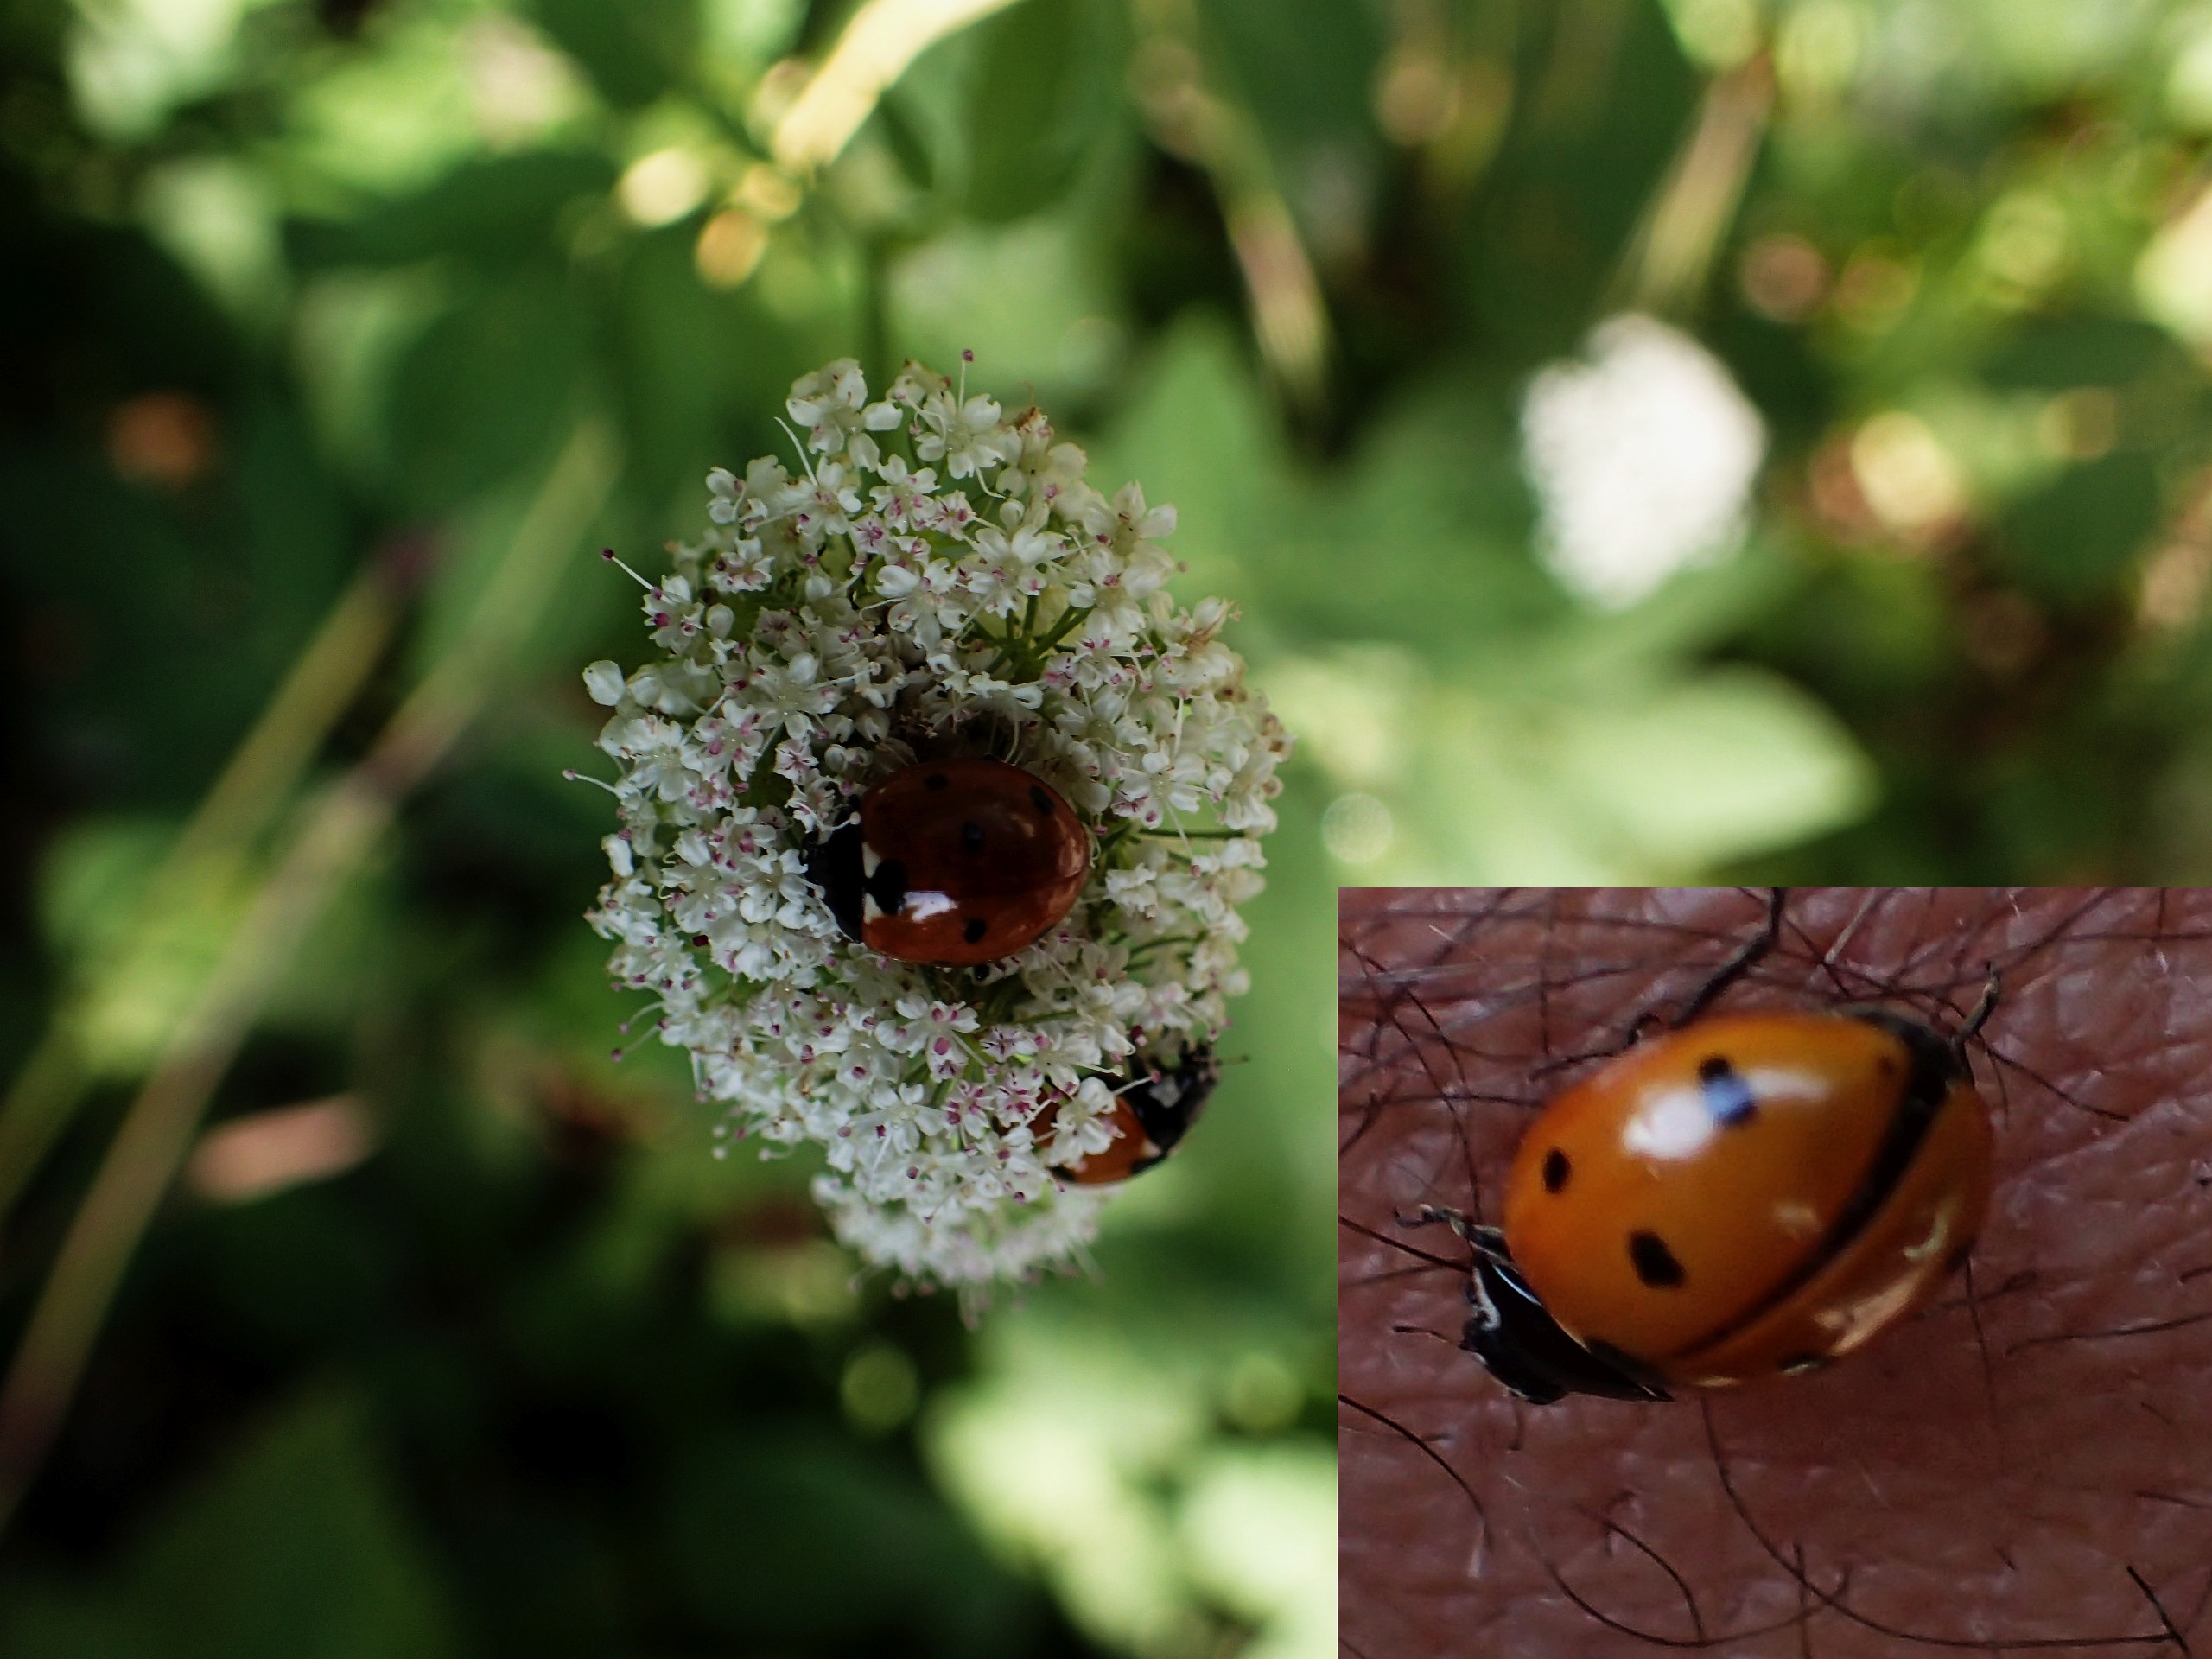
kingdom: Animalia
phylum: Arthropoda
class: Insecta
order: Coleoptera
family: Coccinellidae
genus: Coccinella
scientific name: Coccinella septempunctata
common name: Syvplettet mariehøne
